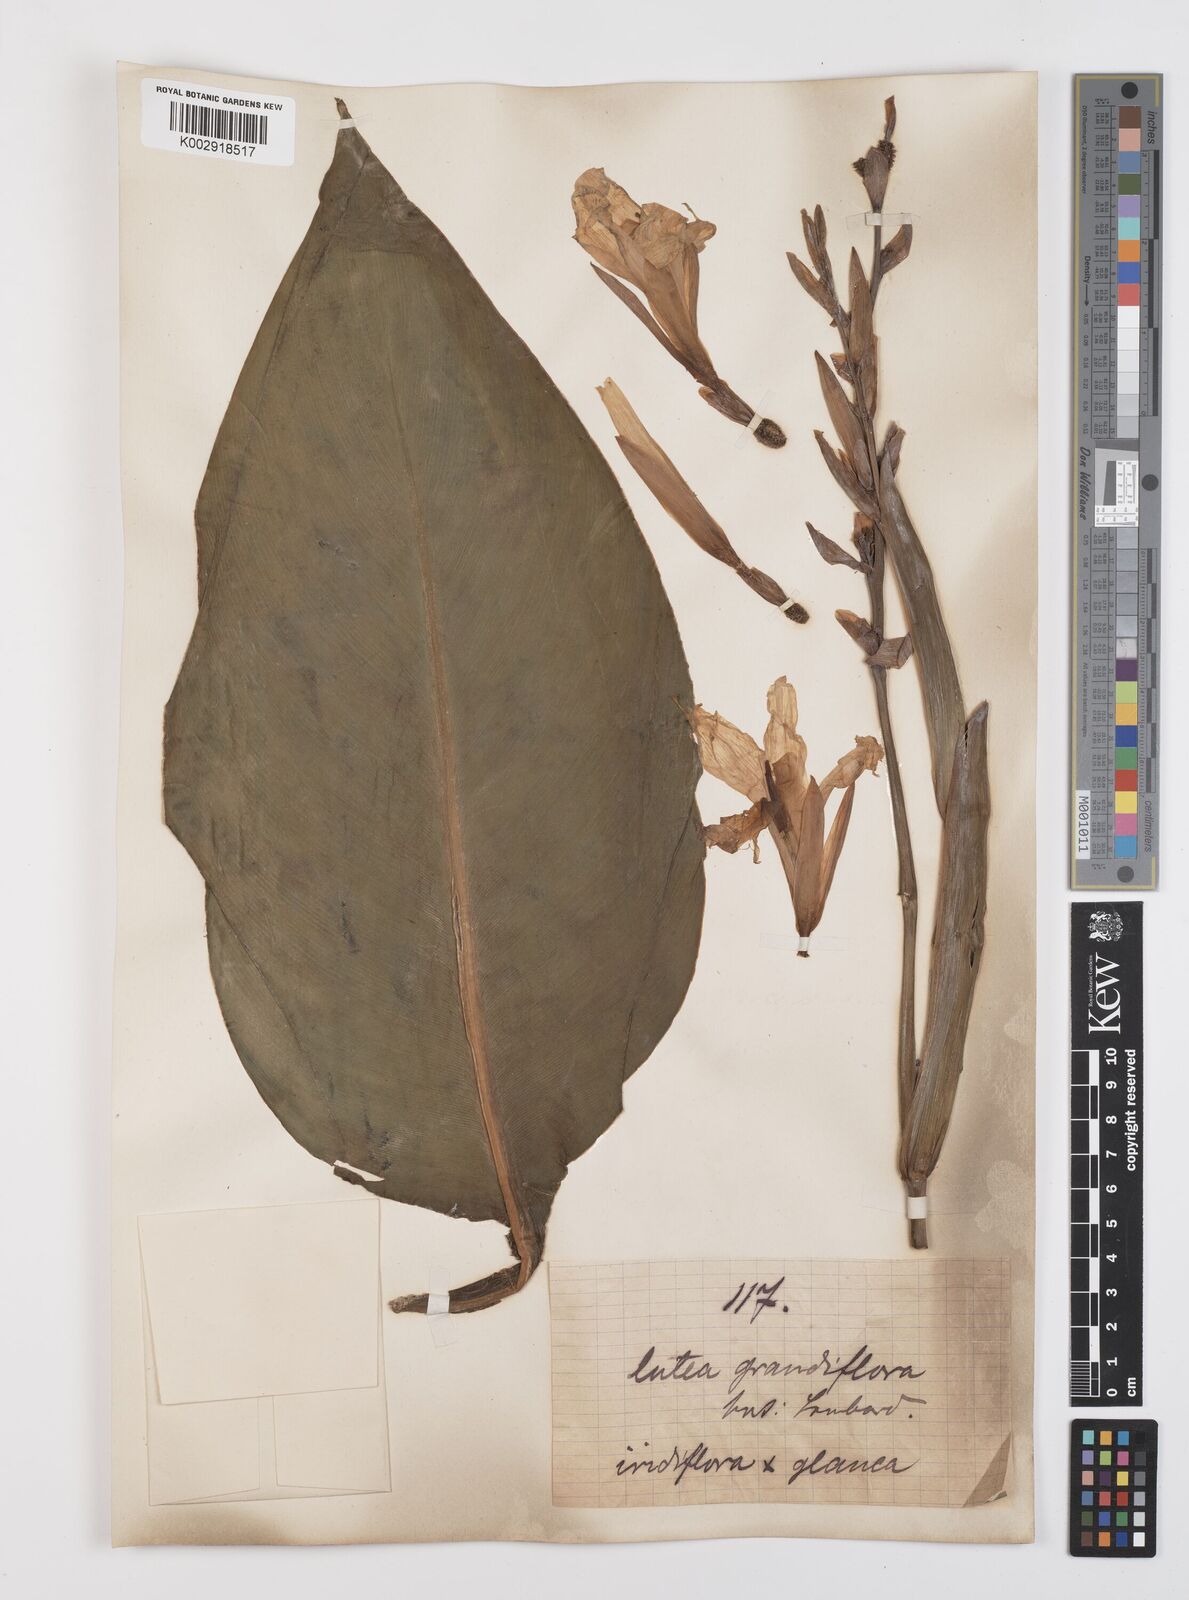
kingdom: Plantae
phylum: Tracheophyta
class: Liliopsida
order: Zingiberales
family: Cannaceae
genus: Canna
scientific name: Canna
